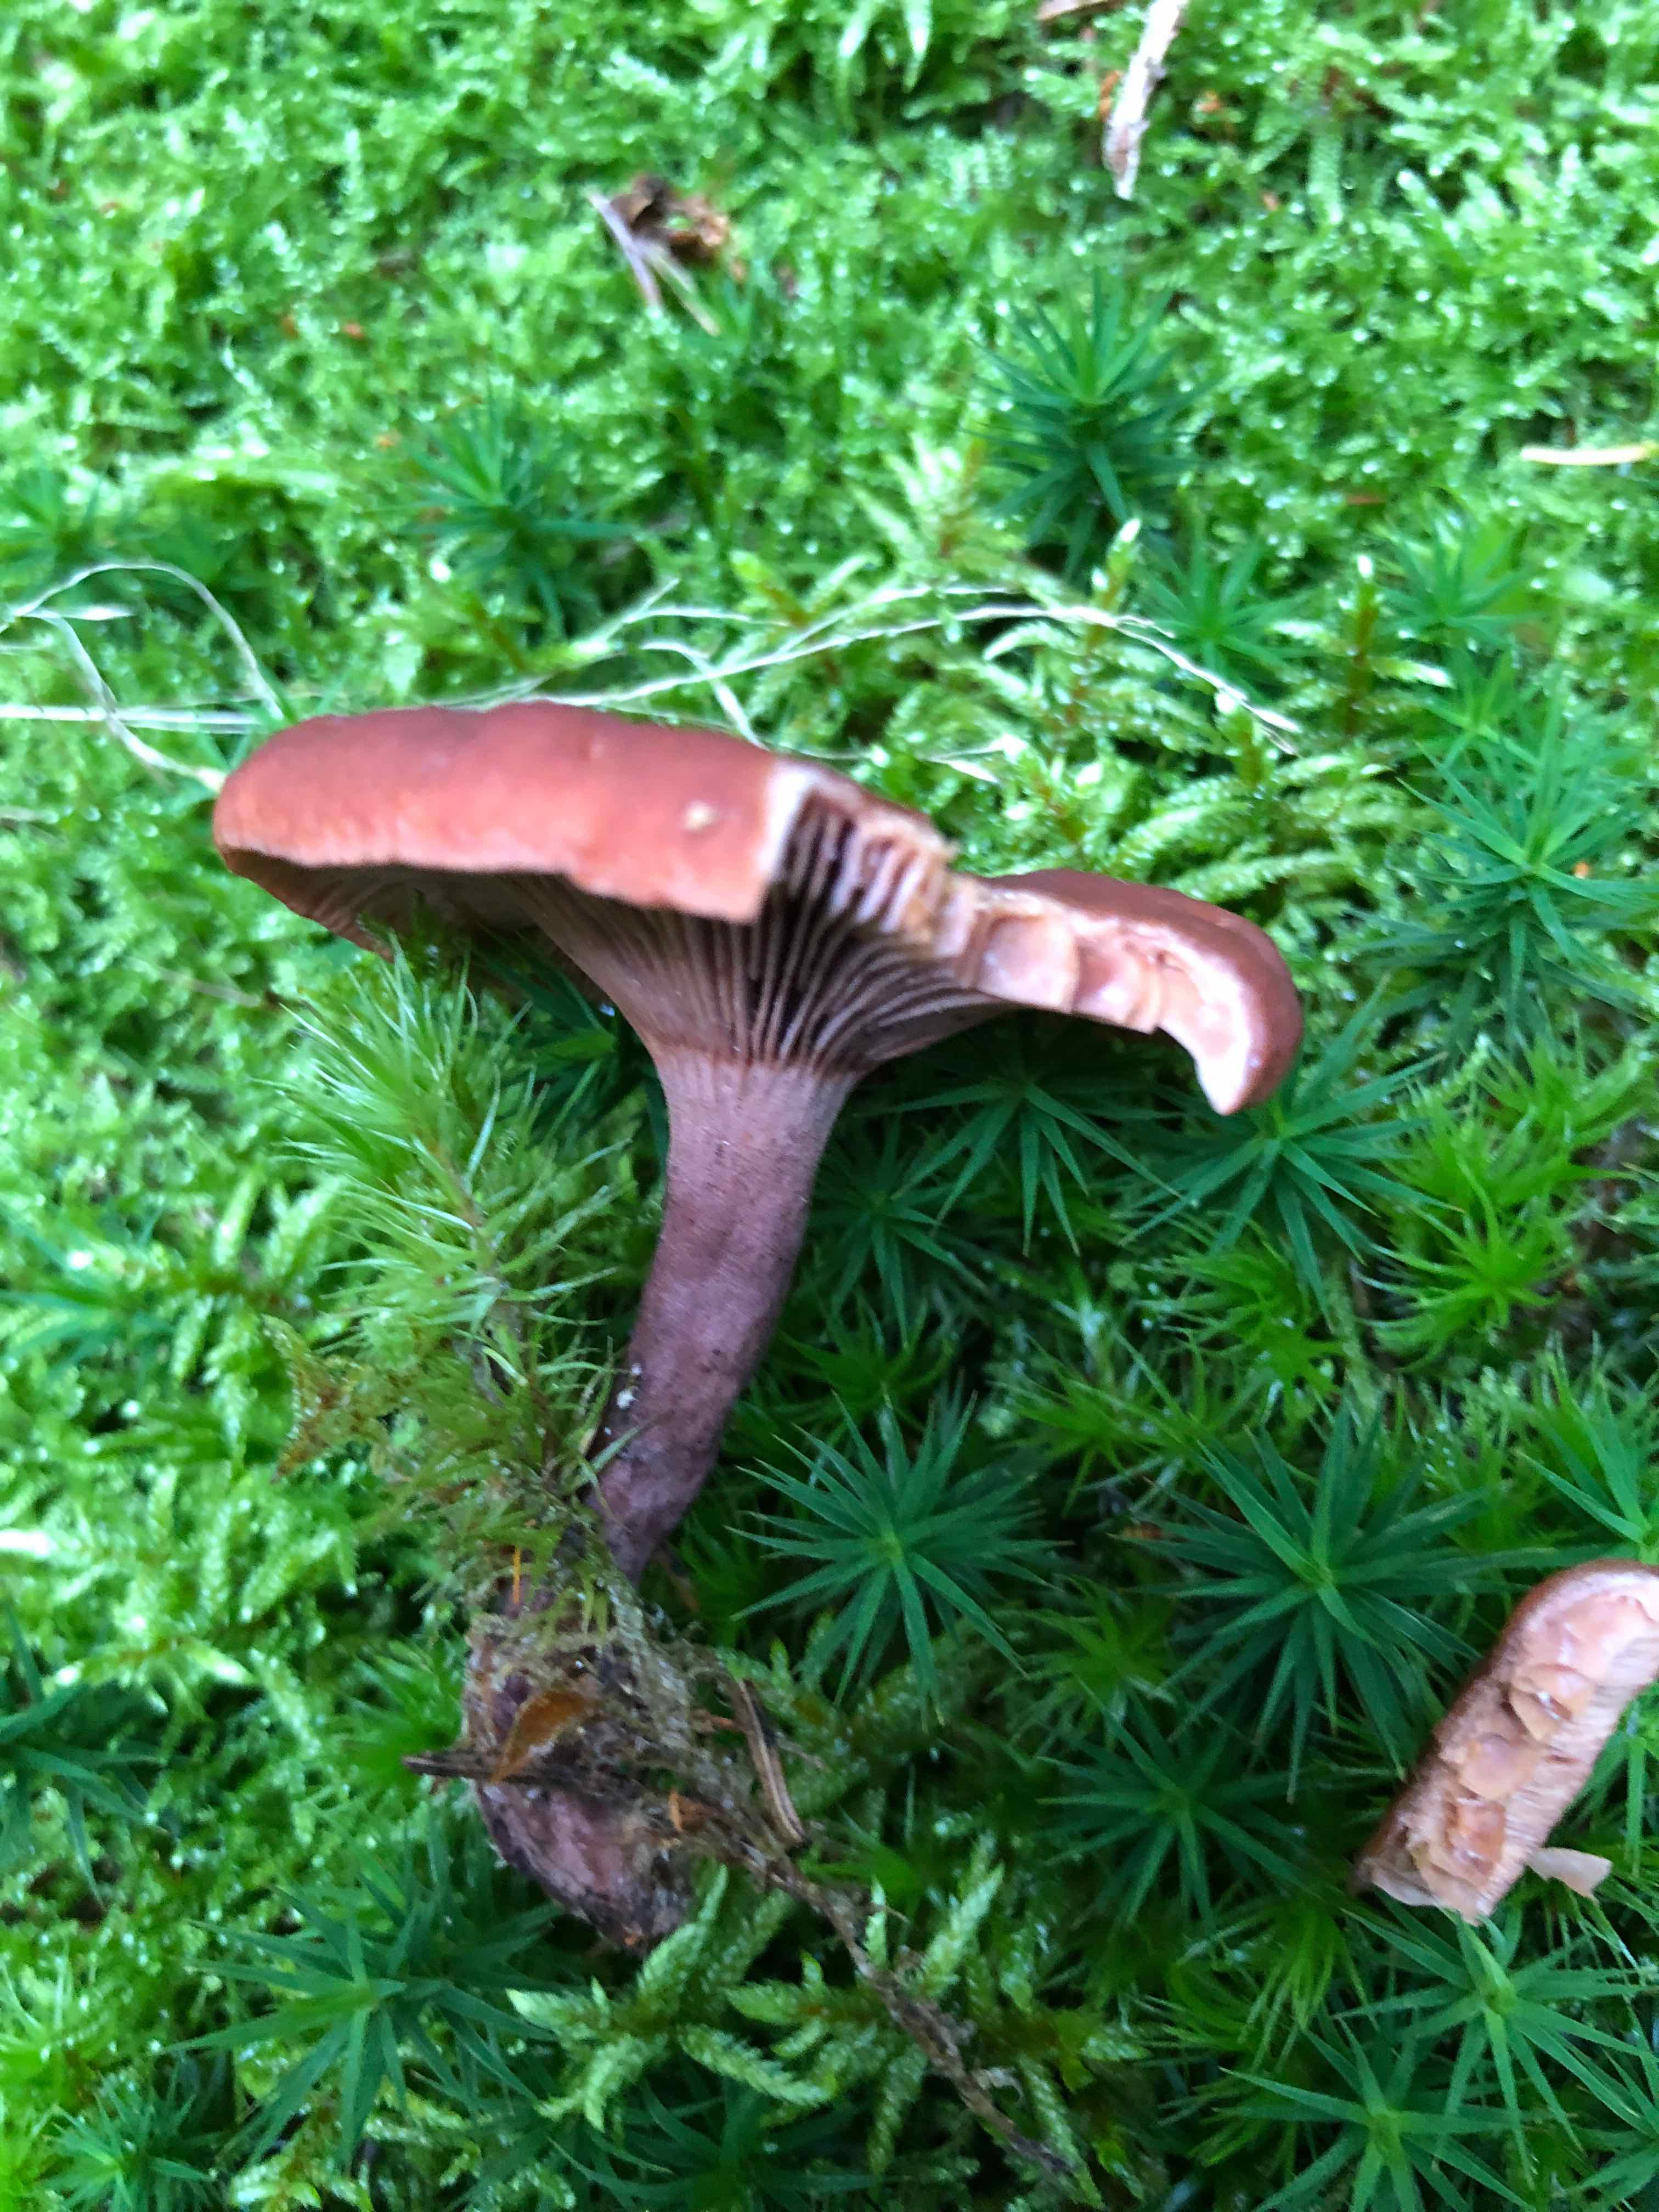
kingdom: Fungi
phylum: Basidiomycota
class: Agaricomycetes
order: Russulales
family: Russulaceae
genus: Lactarius
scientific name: Lactarius camphoratus
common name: kamfer-mælkehat
